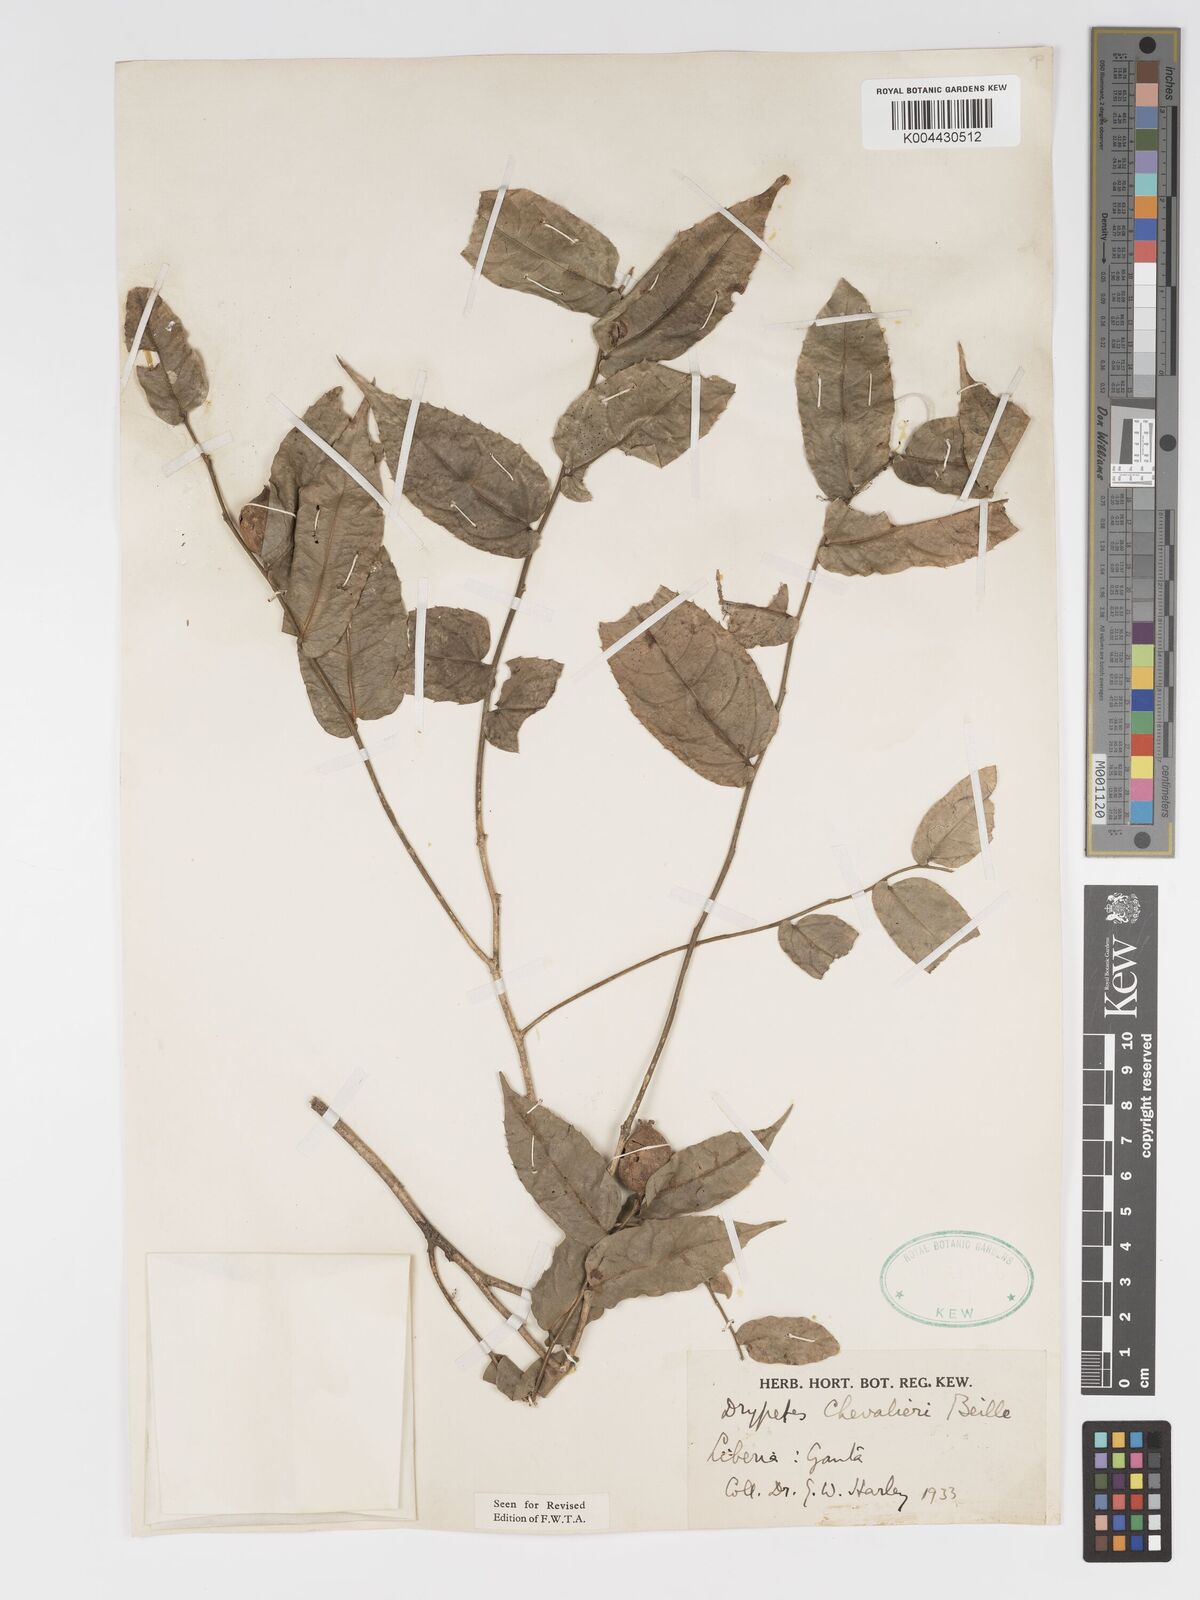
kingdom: Plantae
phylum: Tracheophyta
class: Magnoliopsida
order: Malpighiales
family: Putranjivaceae
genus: Drypetes
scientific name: Drypetes chevalieri
